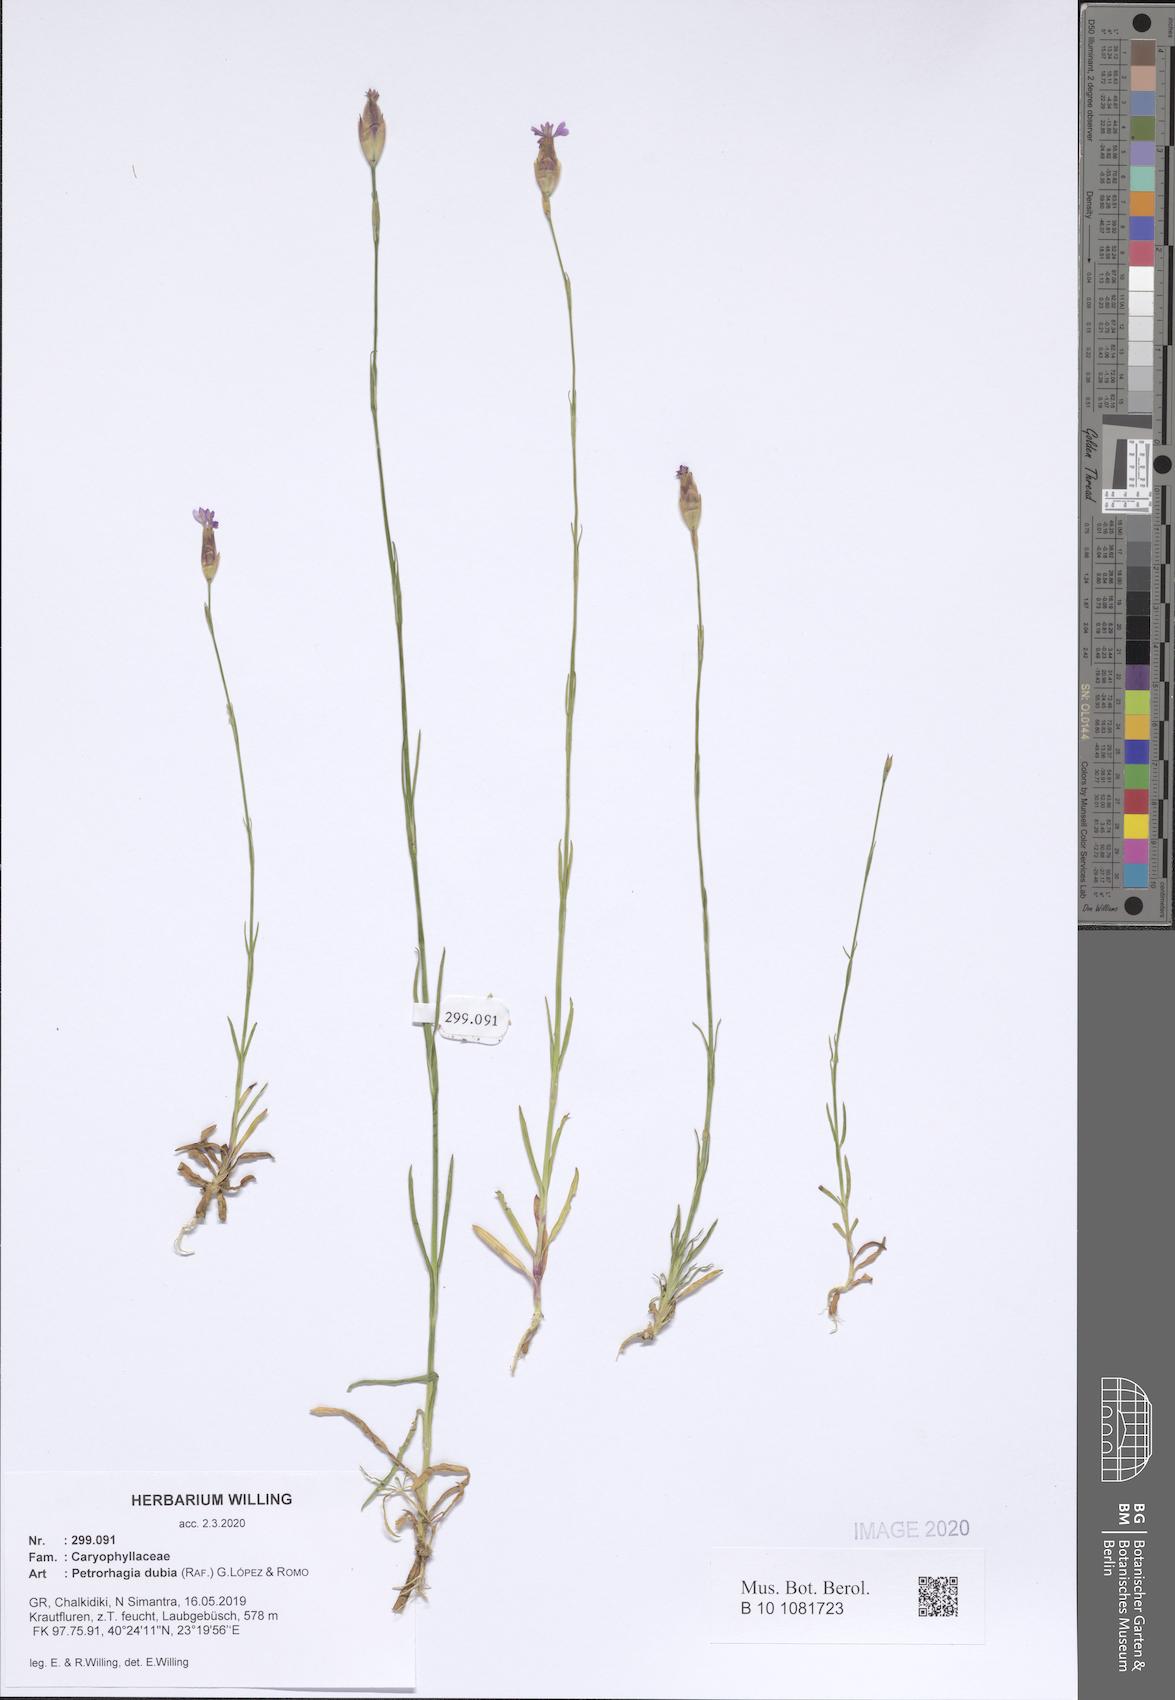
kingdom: Plantae
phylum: Tracheophyta
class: Magnoliopsida
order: Caryophyllales
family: Caryophyllaceae
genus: Petrorhagia
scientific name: Petrorhagia dubia
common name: Hairypink
